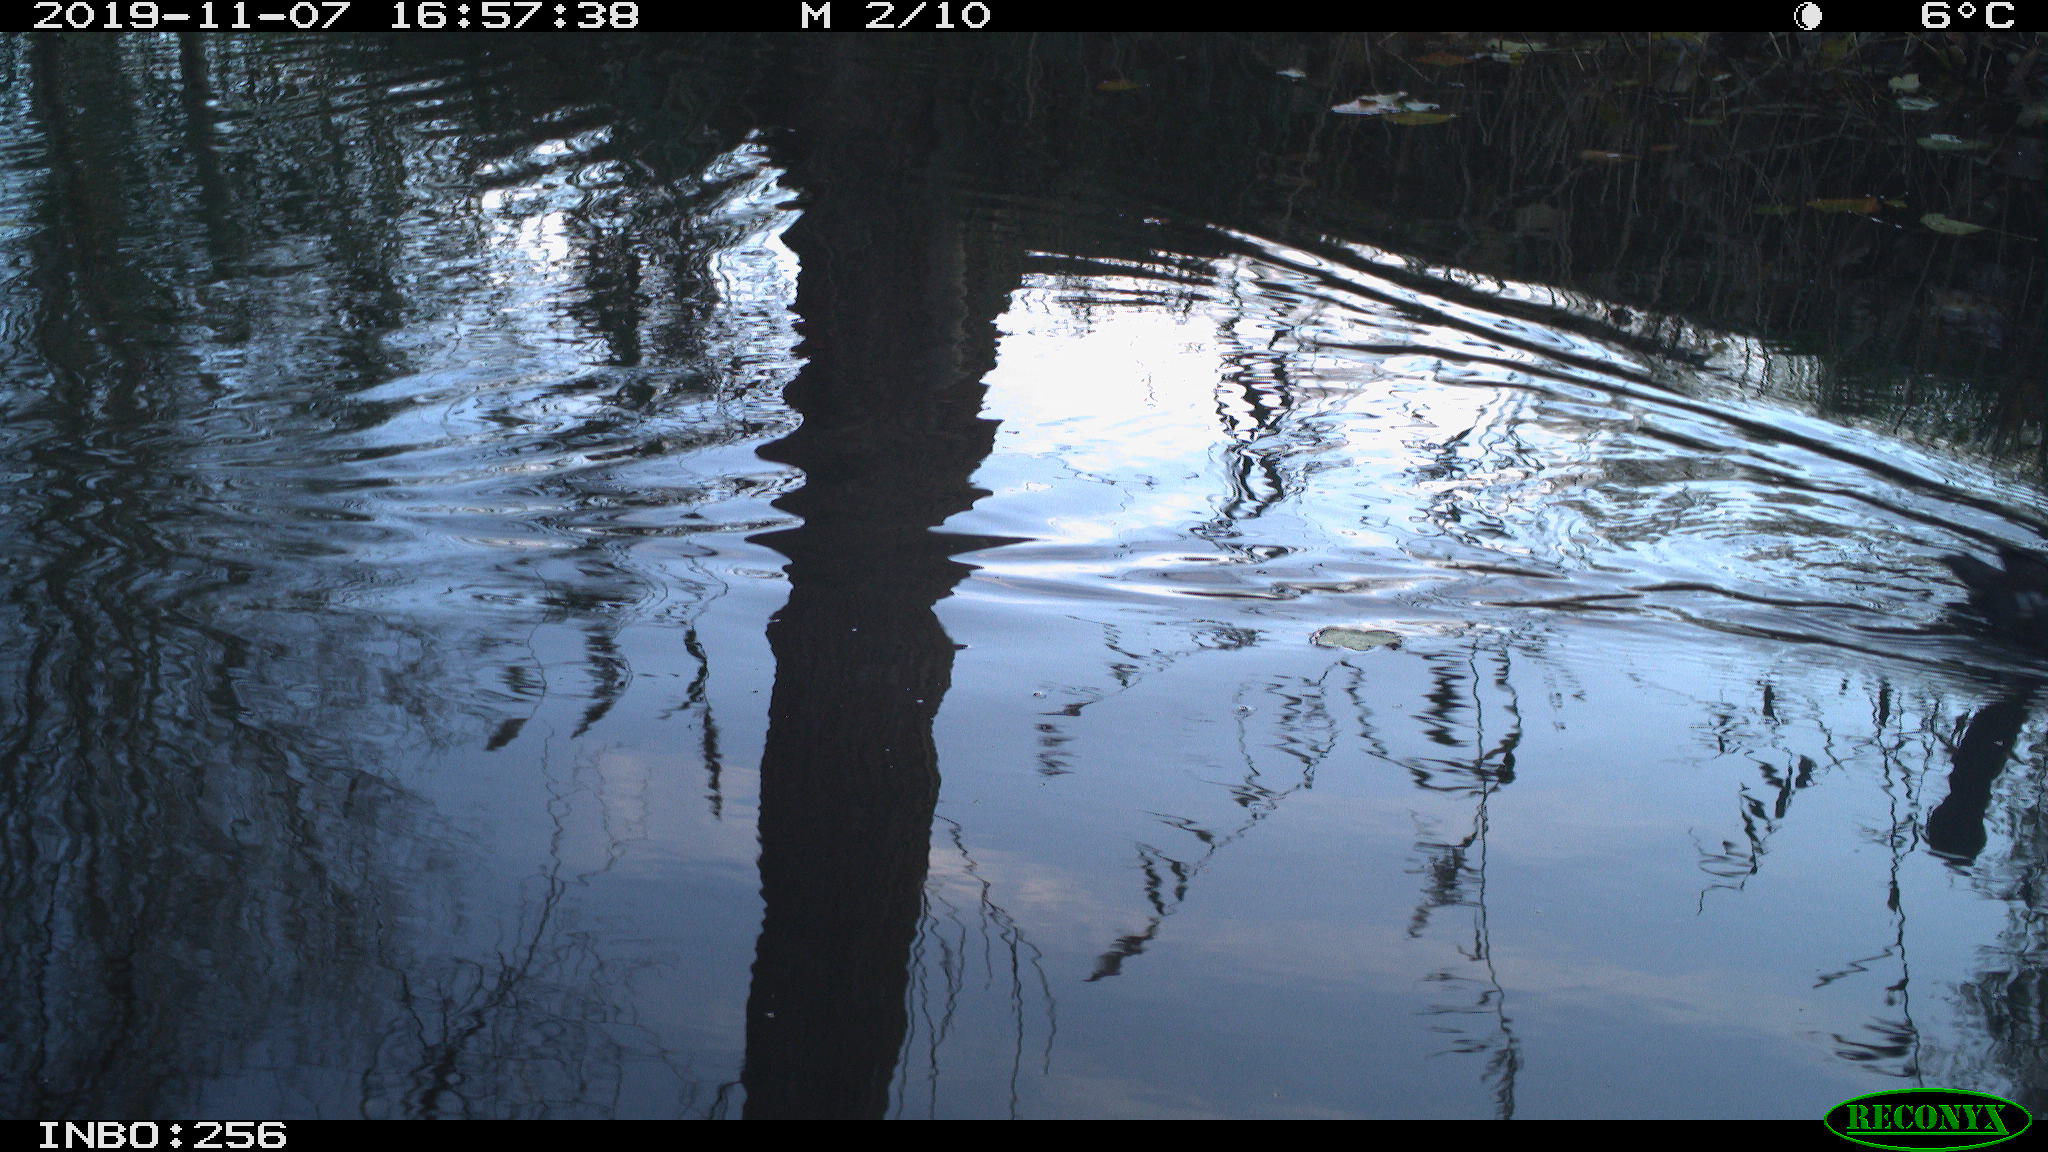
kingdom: Animalia
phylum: Chordata
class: Aves
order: Gruiformes
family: Rallidae
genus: Gallinula
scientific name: Gallinula chloropus
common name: Common moorhen
